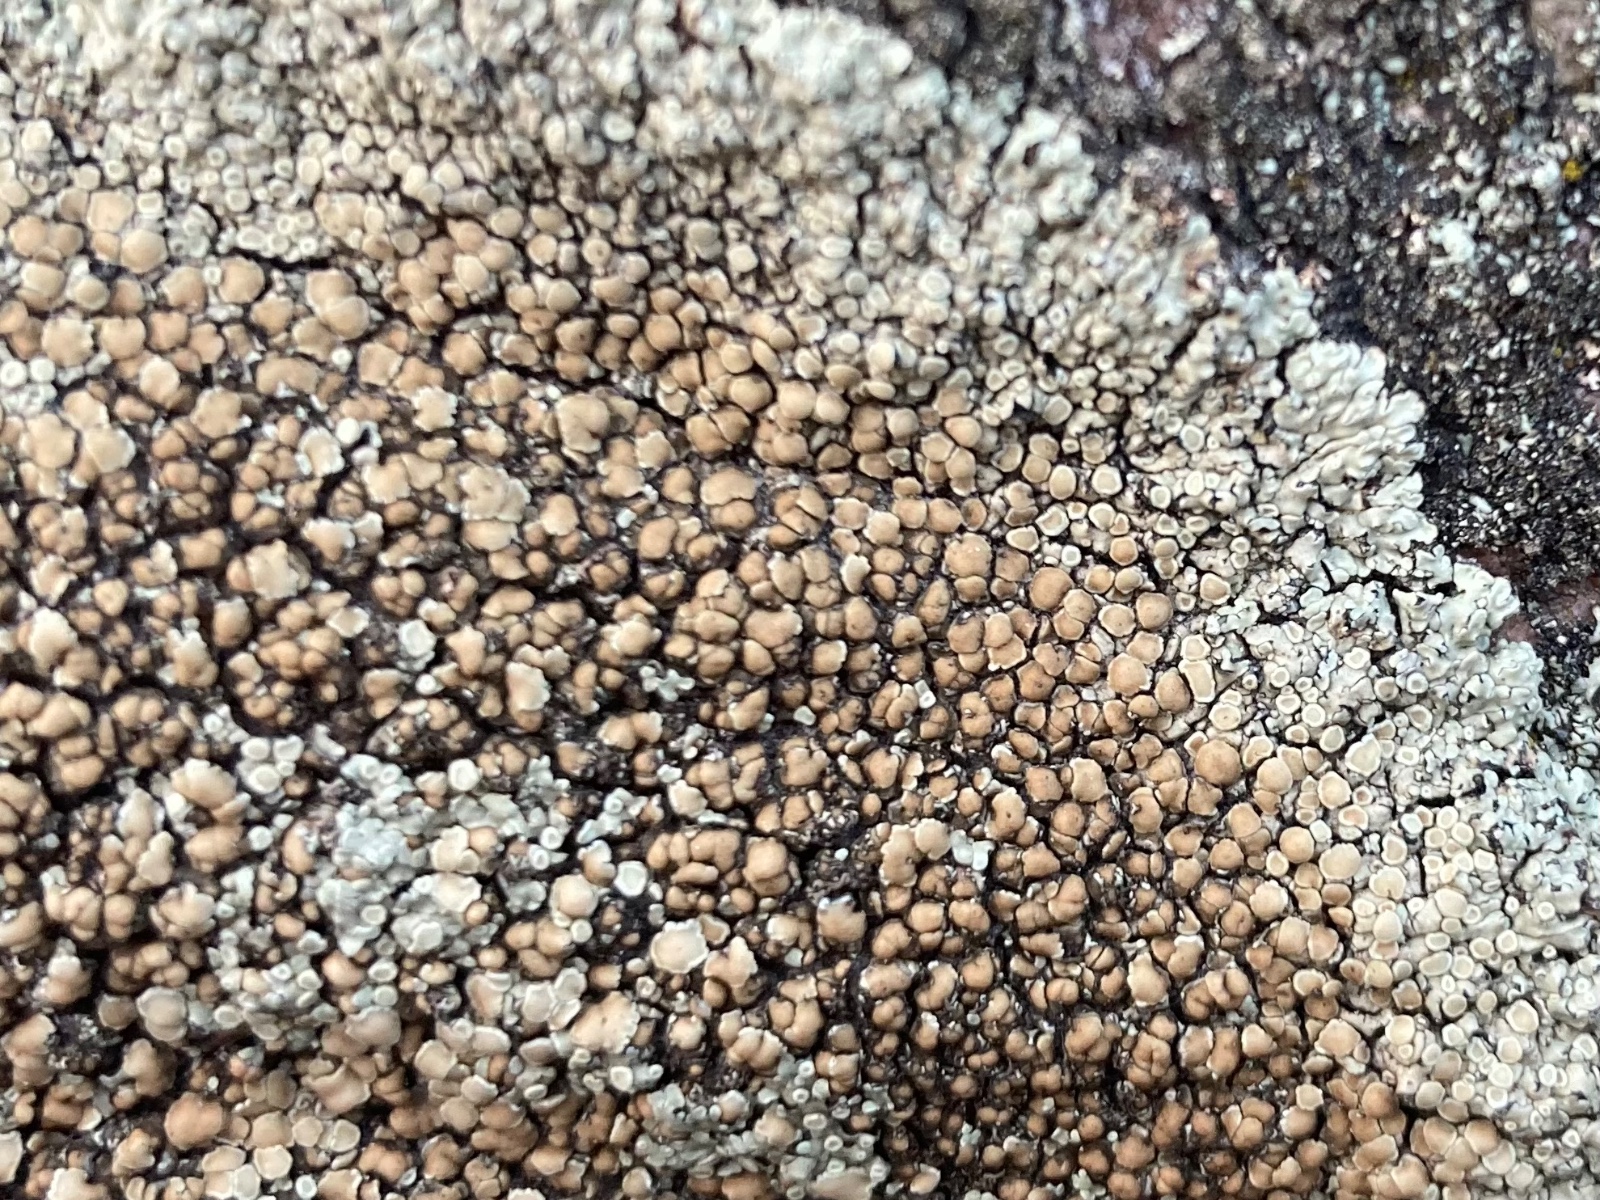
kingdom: Fungi
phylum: Ascomycota
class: Lecanoromycetes
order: Lecanorales
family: Lecanoraceae
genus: Protoparmeliopsis
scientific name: Protoparmeliopsis muralis
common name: randfliget kantskivelav
